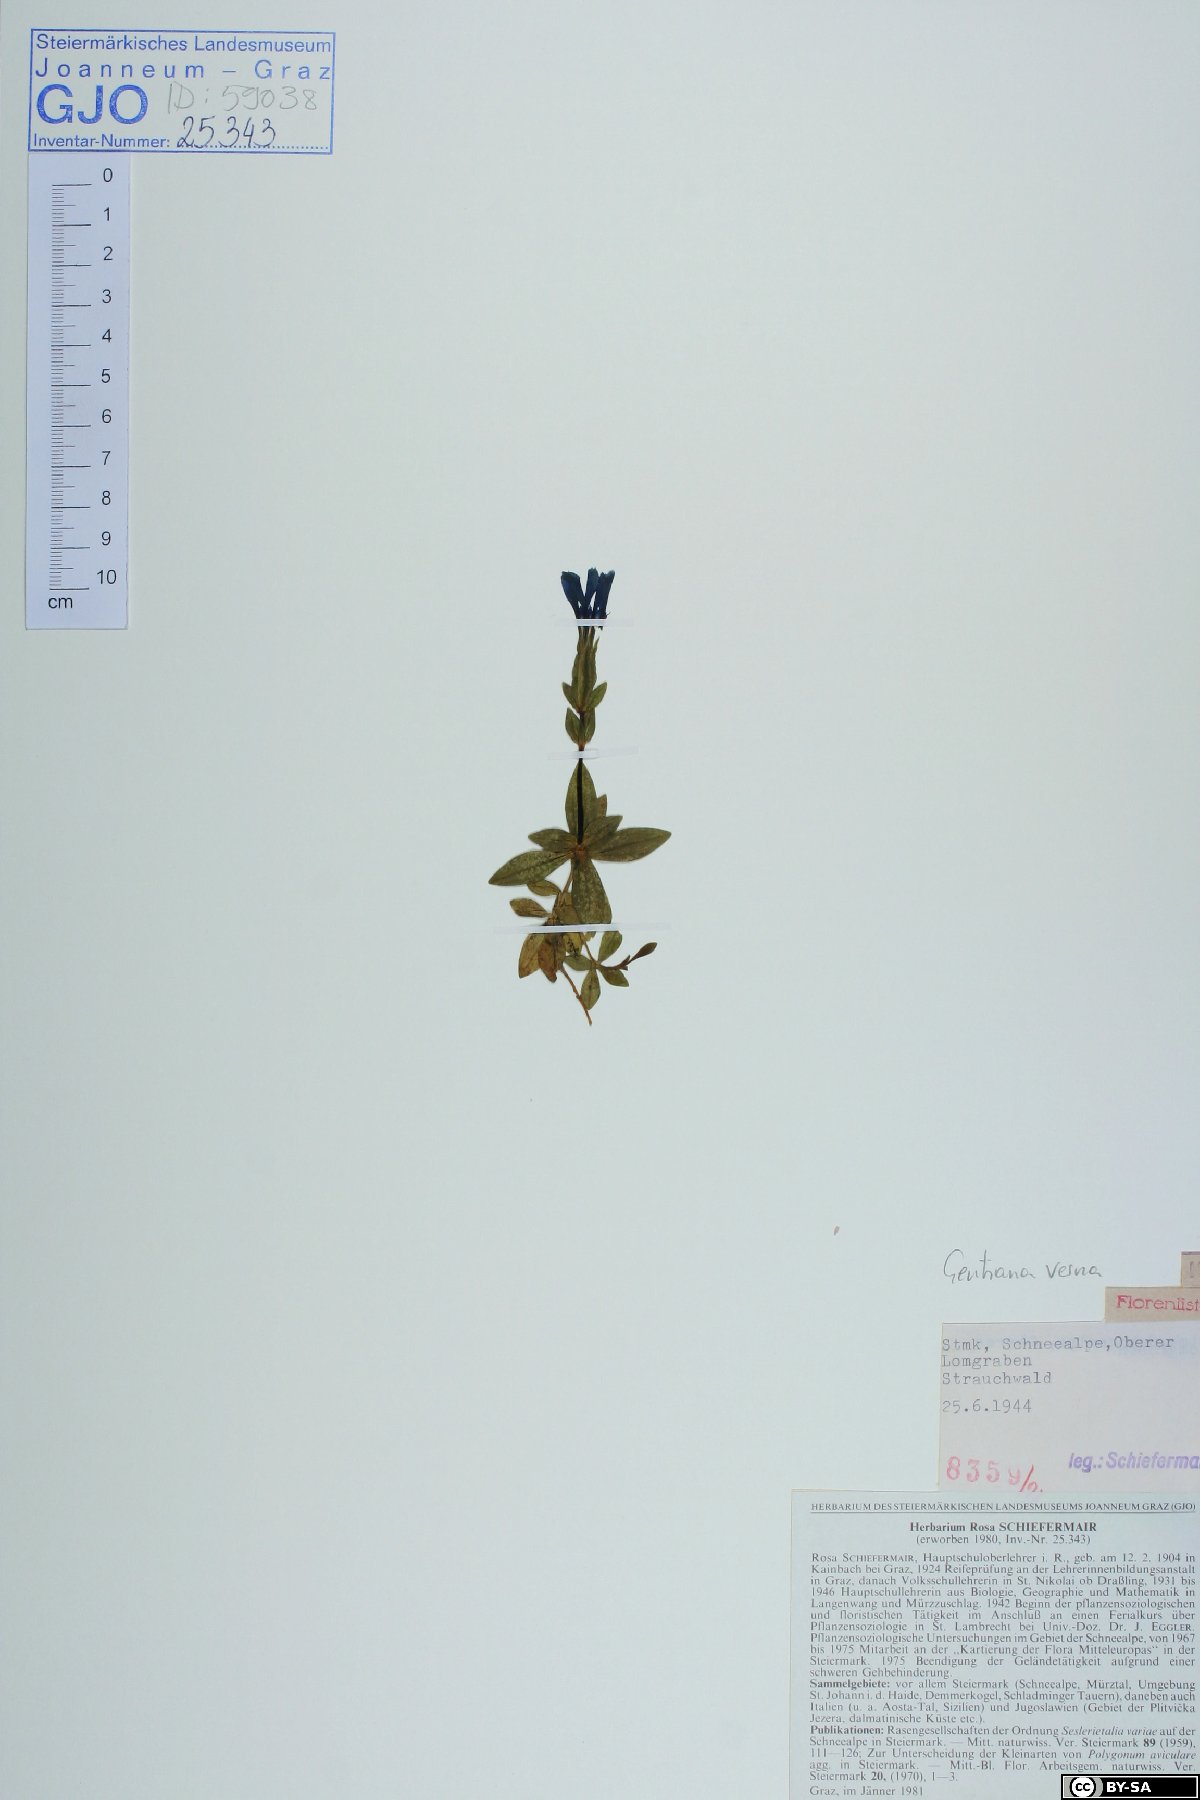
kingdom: Plantae
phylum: Tracheophyta
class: Magnoliopsida
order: Gentianales
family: Gentianaceae
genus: Gentiana
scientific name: Gentiana verna
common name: Spring gentian
